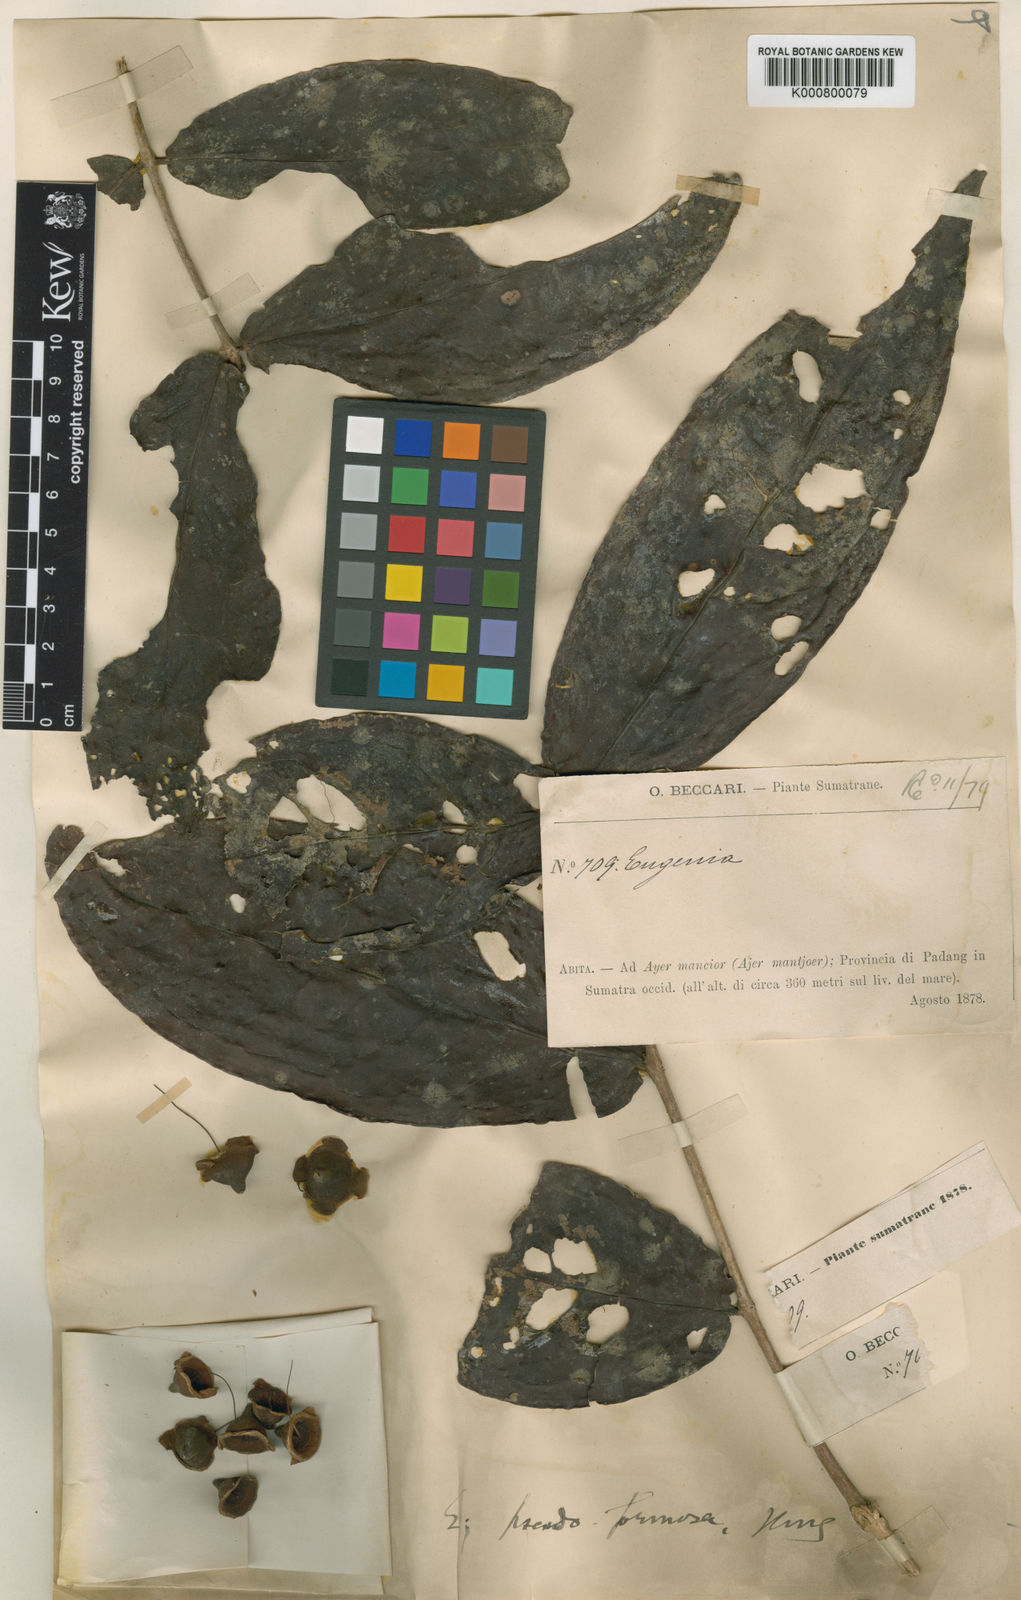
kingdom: Plantae
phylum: Tracheophyta
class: Magnoliopsida
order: Myrtales
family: Myrtaceae
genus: Syzygium
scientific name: Syzygium formosum
